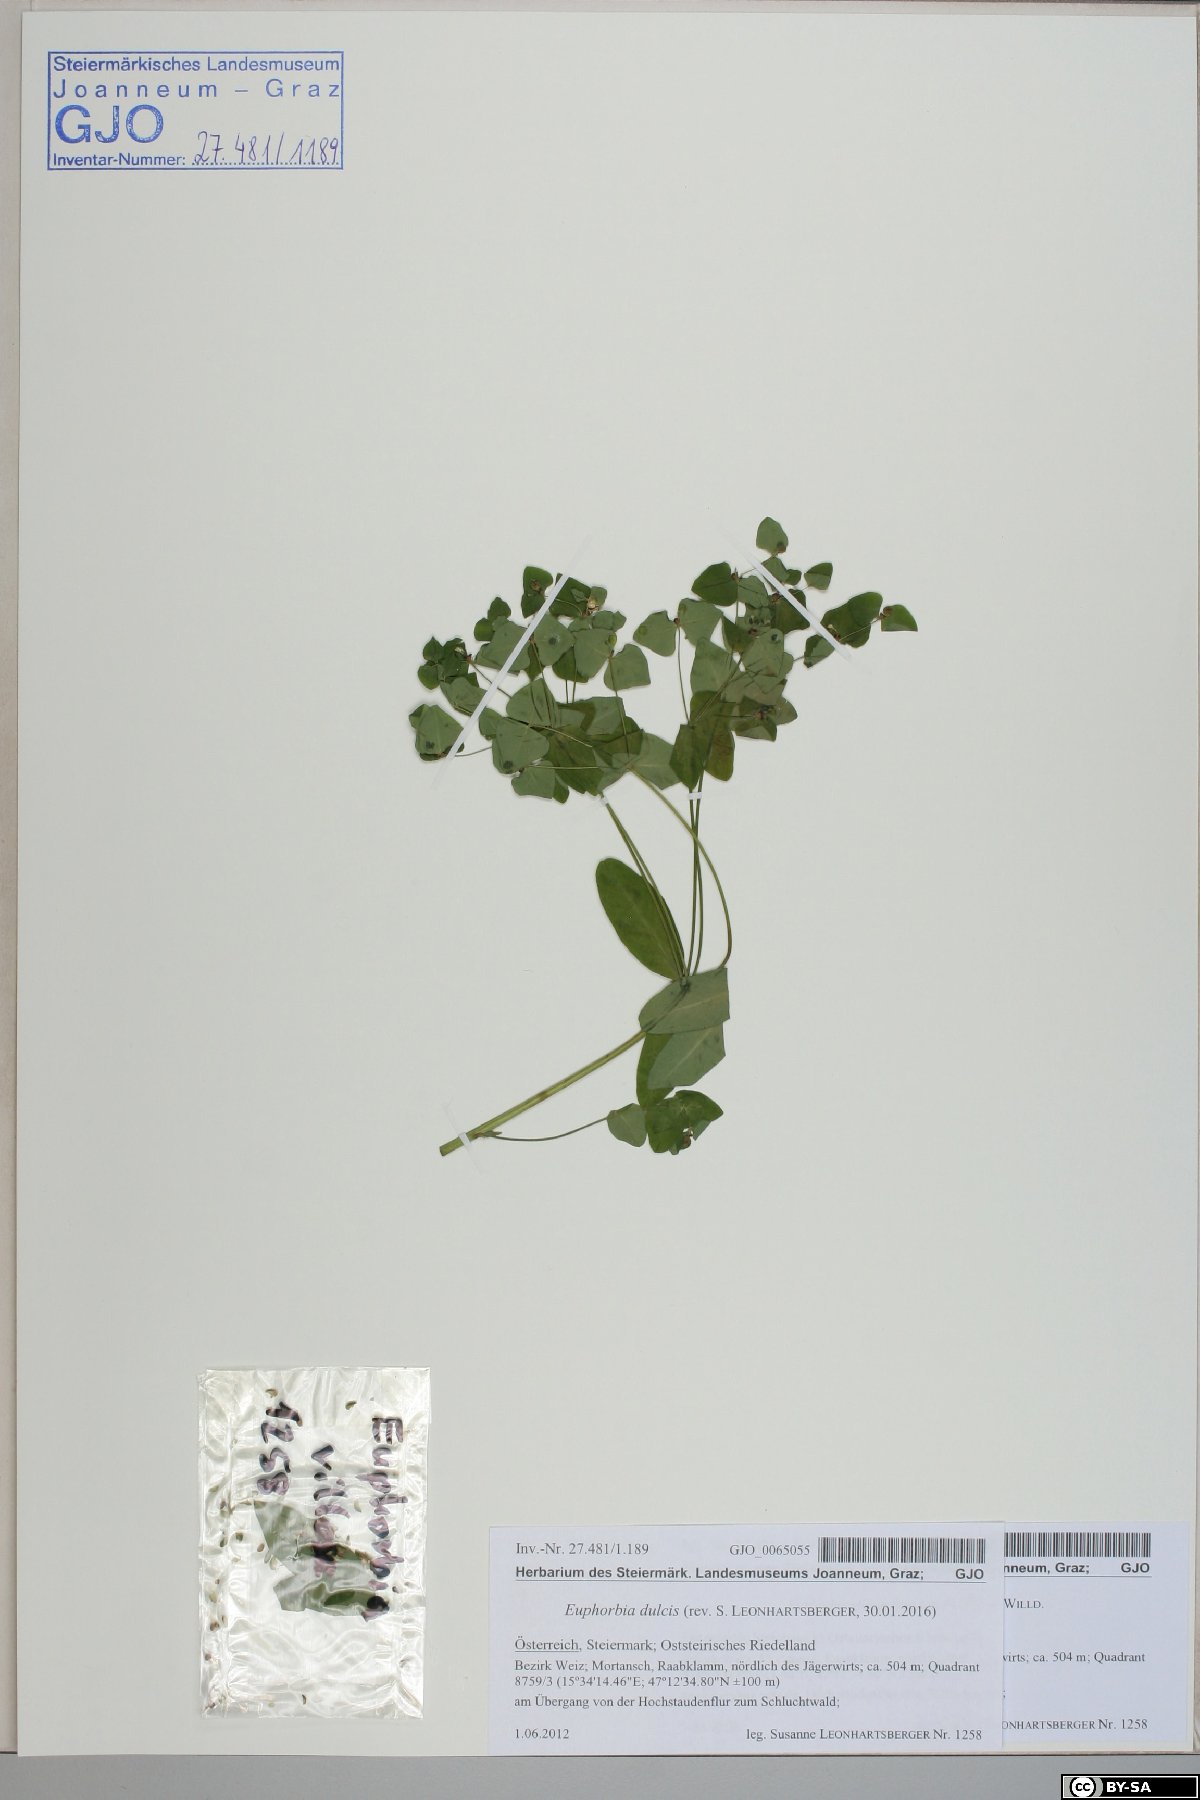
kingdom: Plantae
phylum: Tracheophyta
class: Magnoliopsida
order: Malpighiales
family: Euphorbiaceae
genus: Euphorbia
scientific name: Euphorbia dulcis
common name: Sweet spurge
